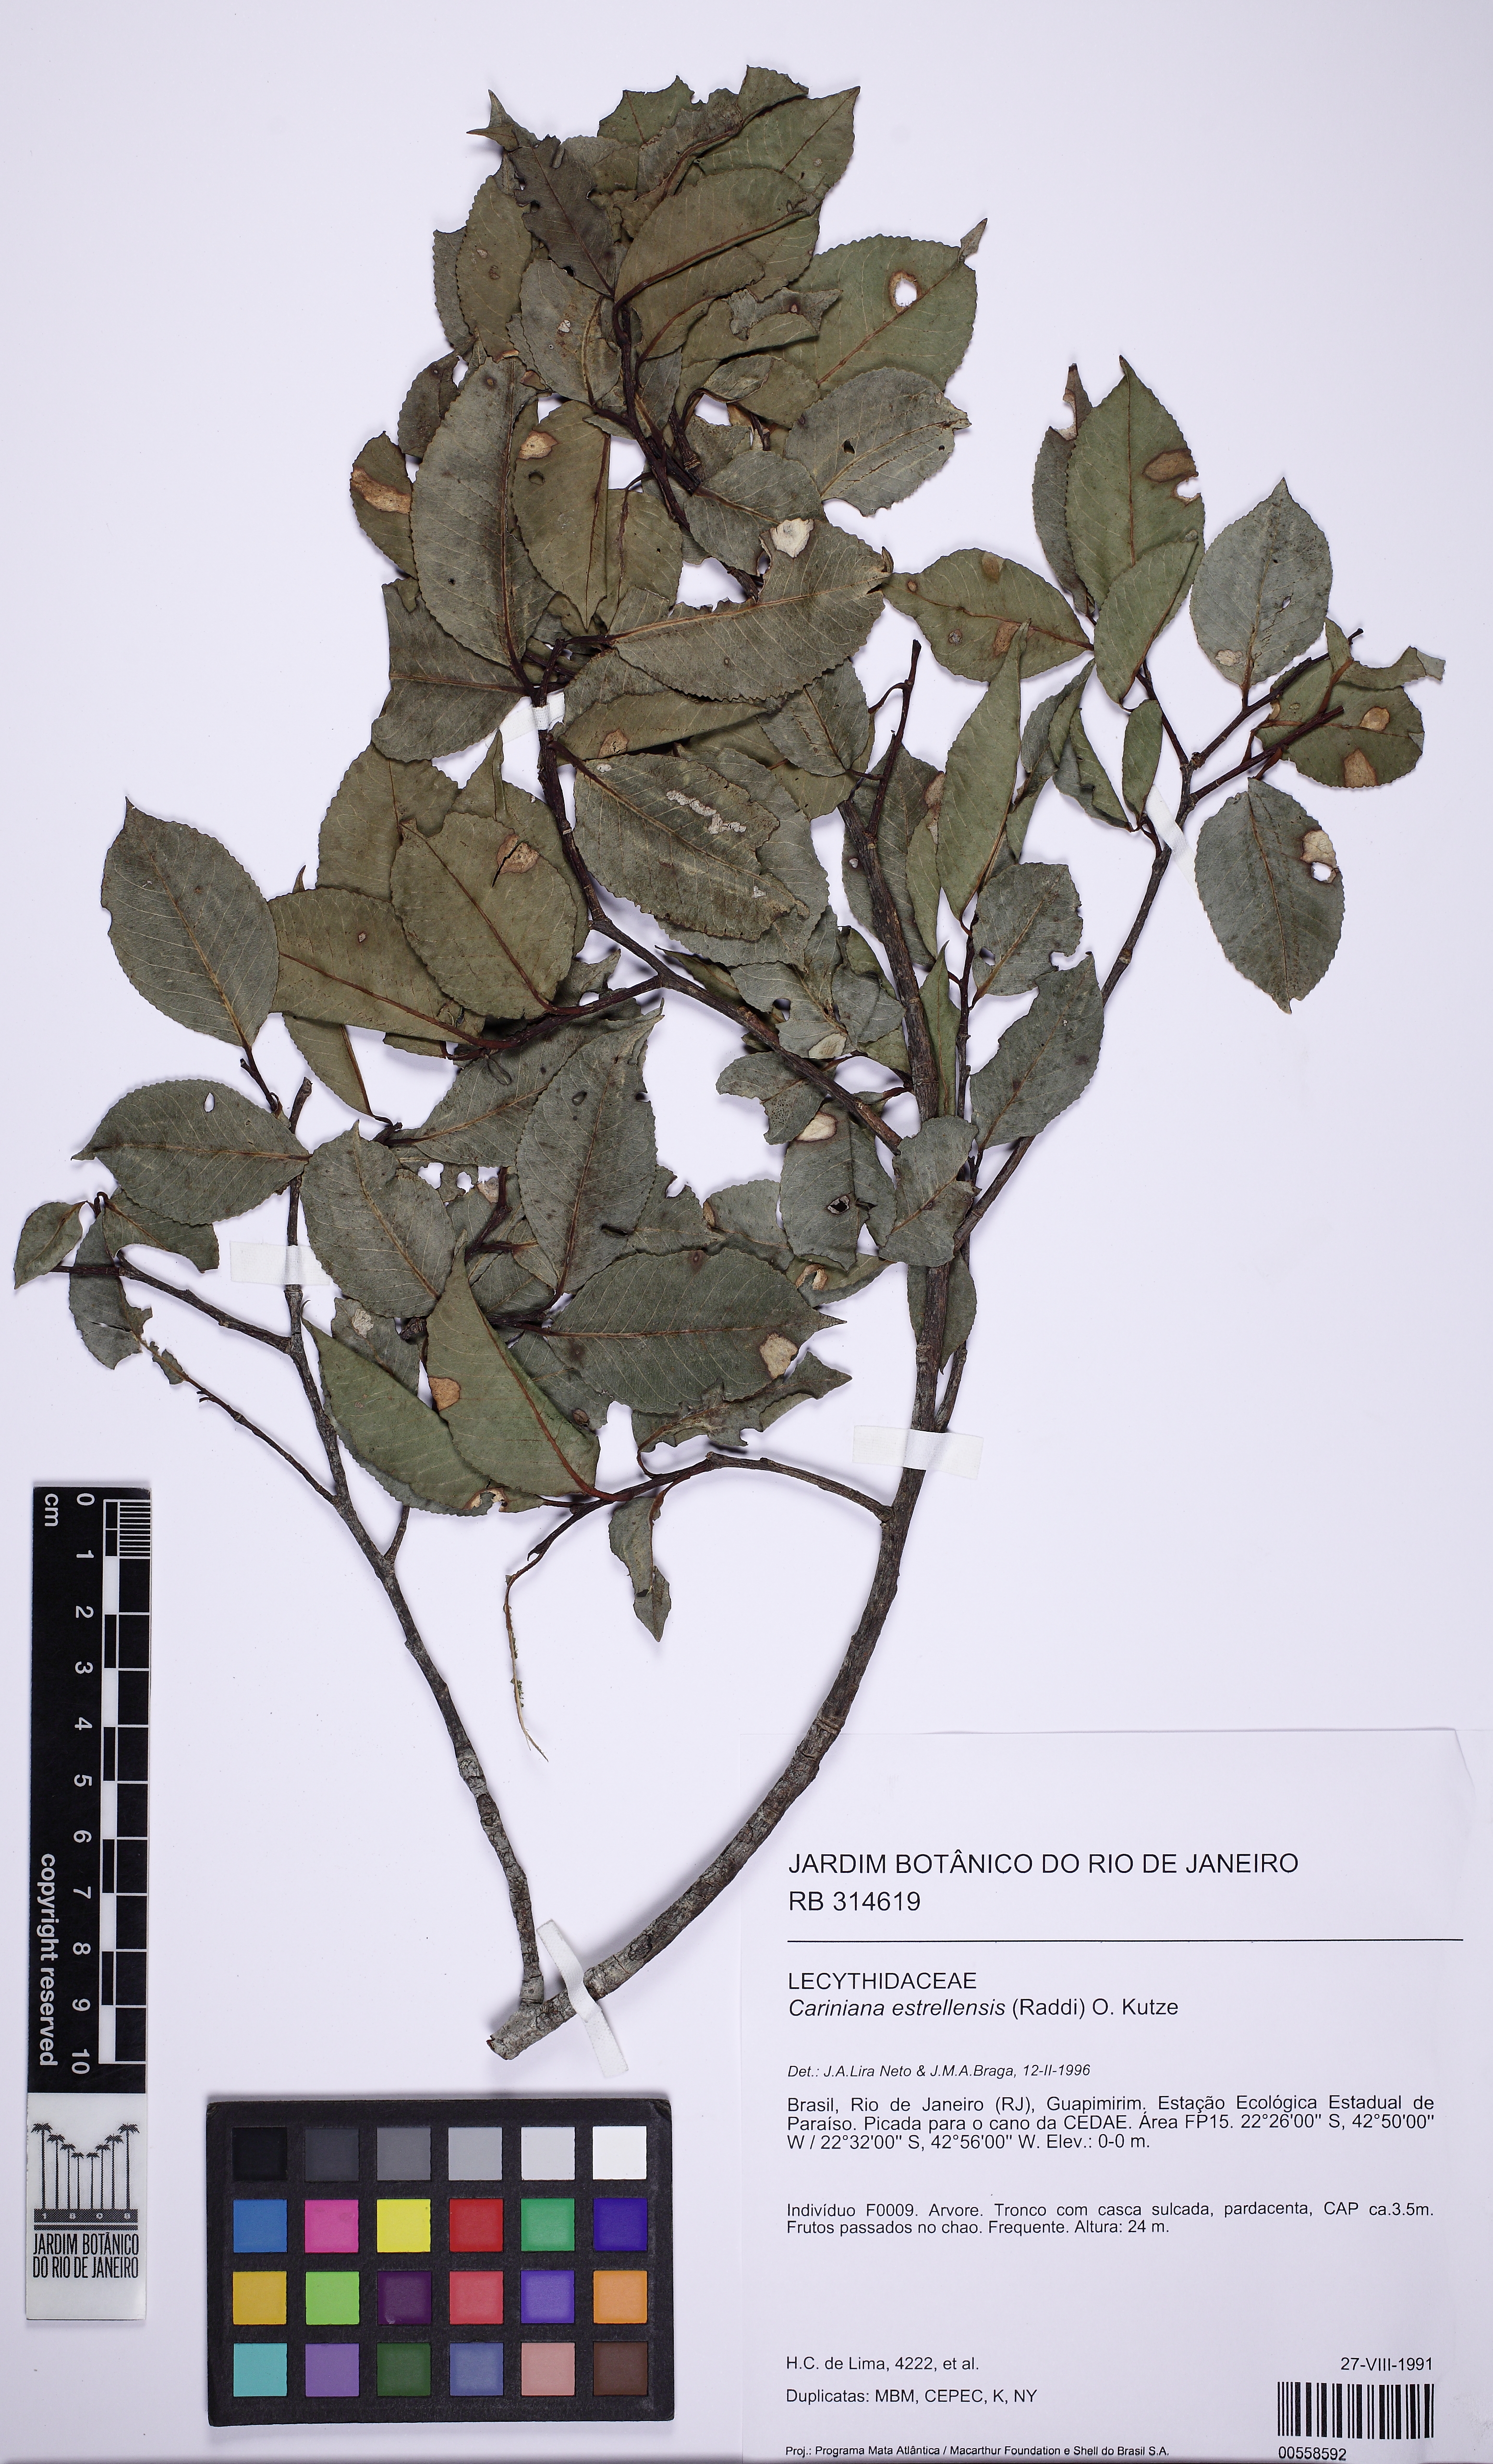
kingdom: Plantae
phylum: Tracheophyta
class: Magnoliopsida
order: Ericales
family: Lecythidaceae
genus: Cariniana
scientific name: Cariniana estrellensis
